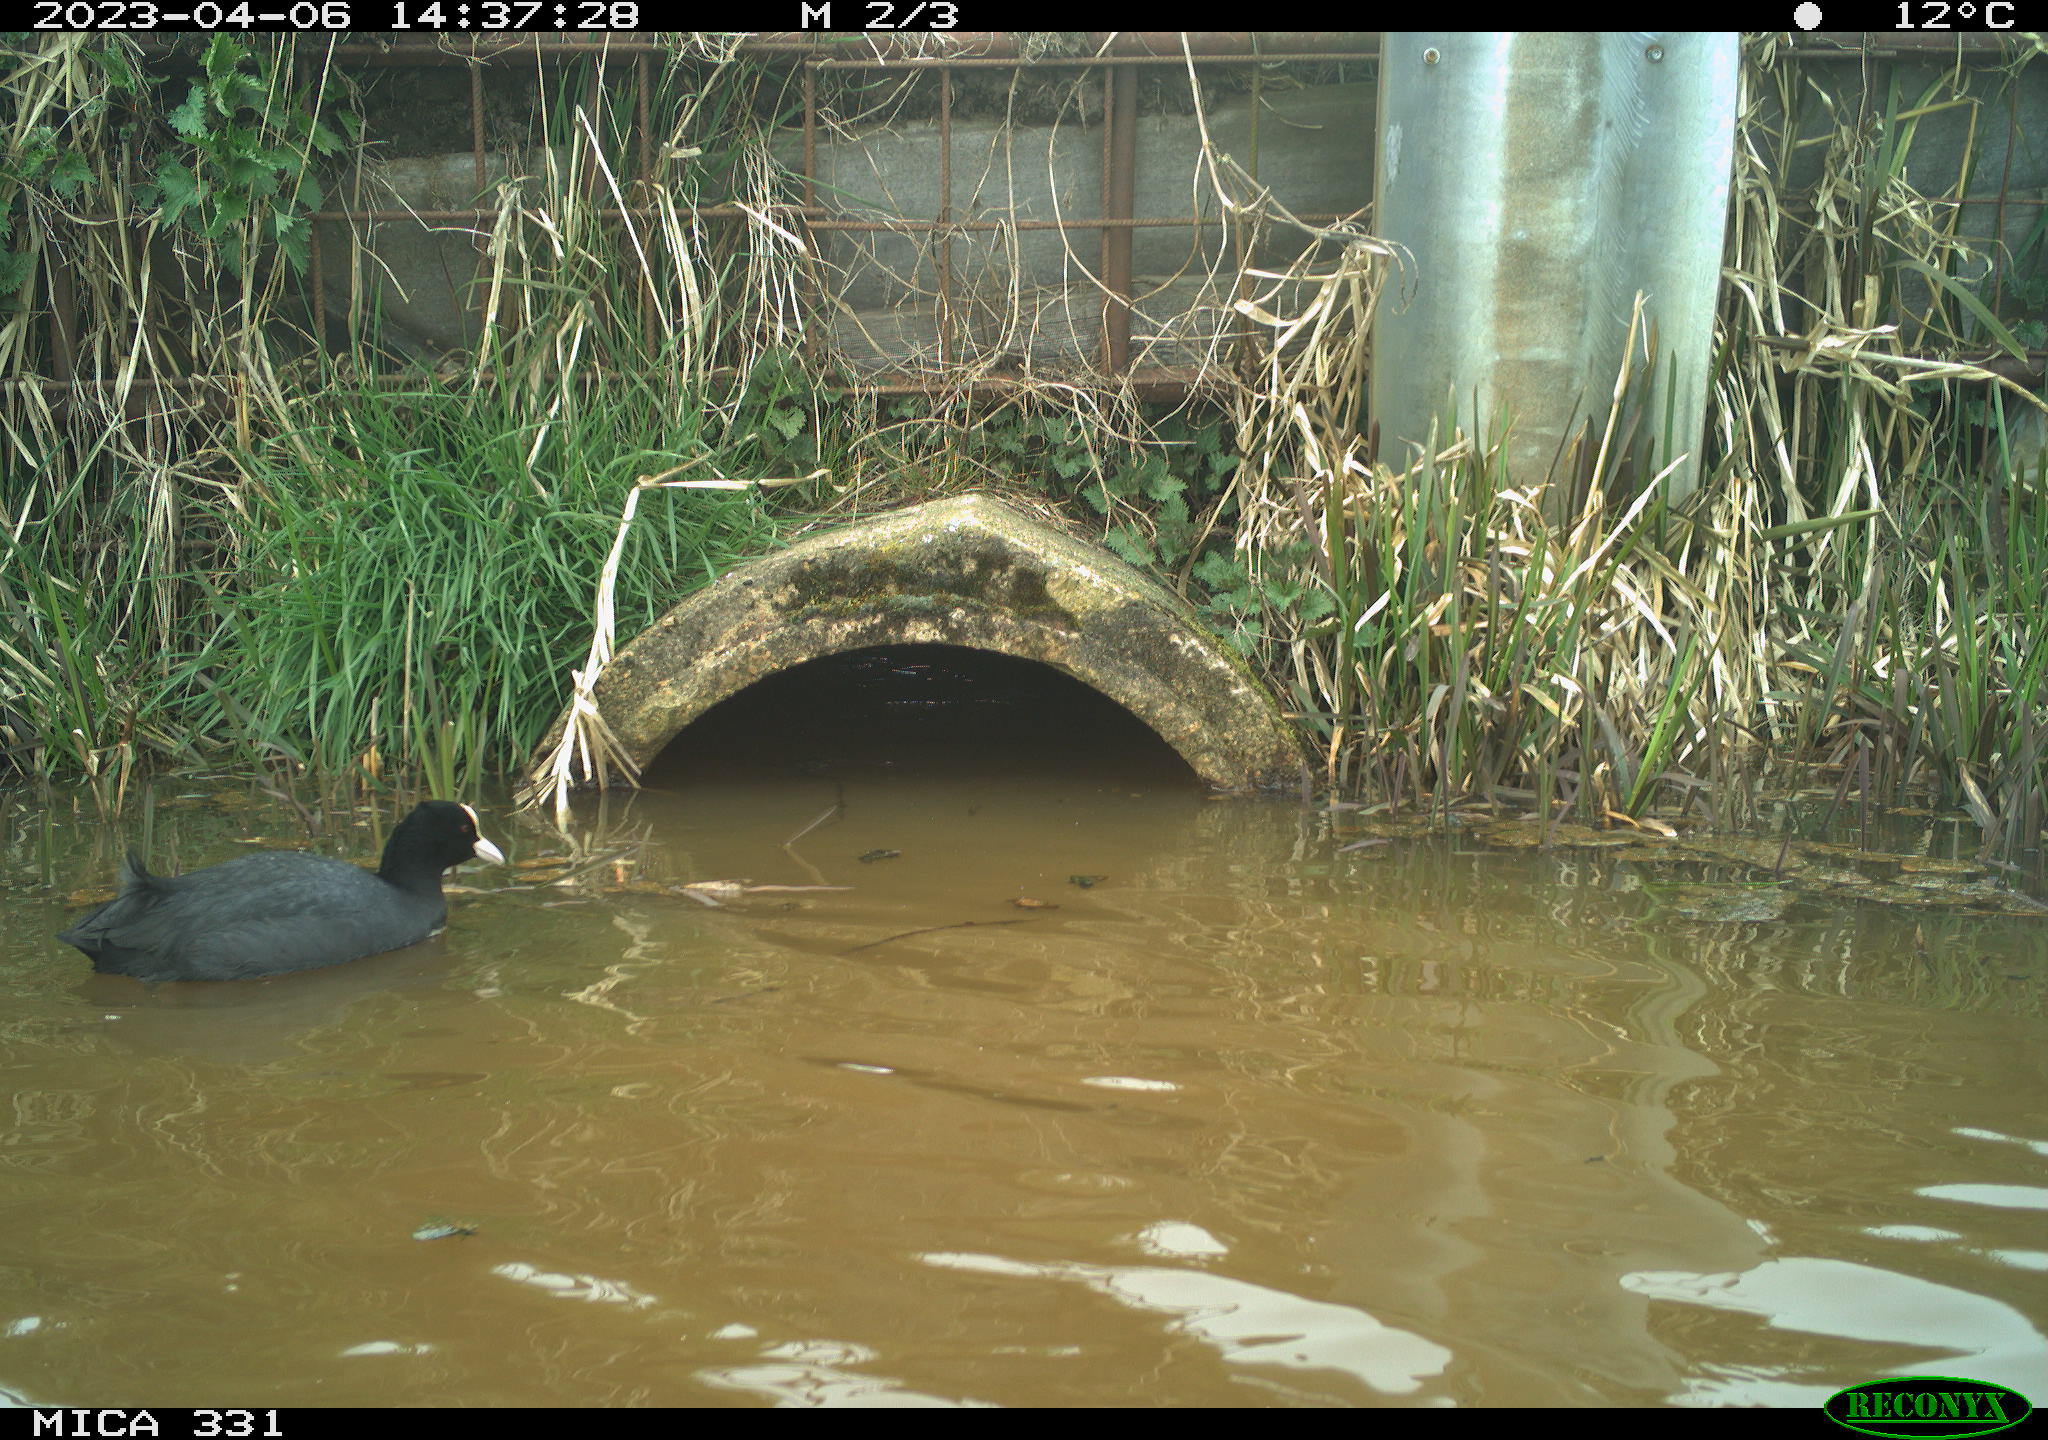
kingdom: Animalia
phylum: Chordata
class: Aves
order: Gruiformes
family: Rallidae
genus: Fulica
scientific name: Fulica atra
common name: Eurasian coot
